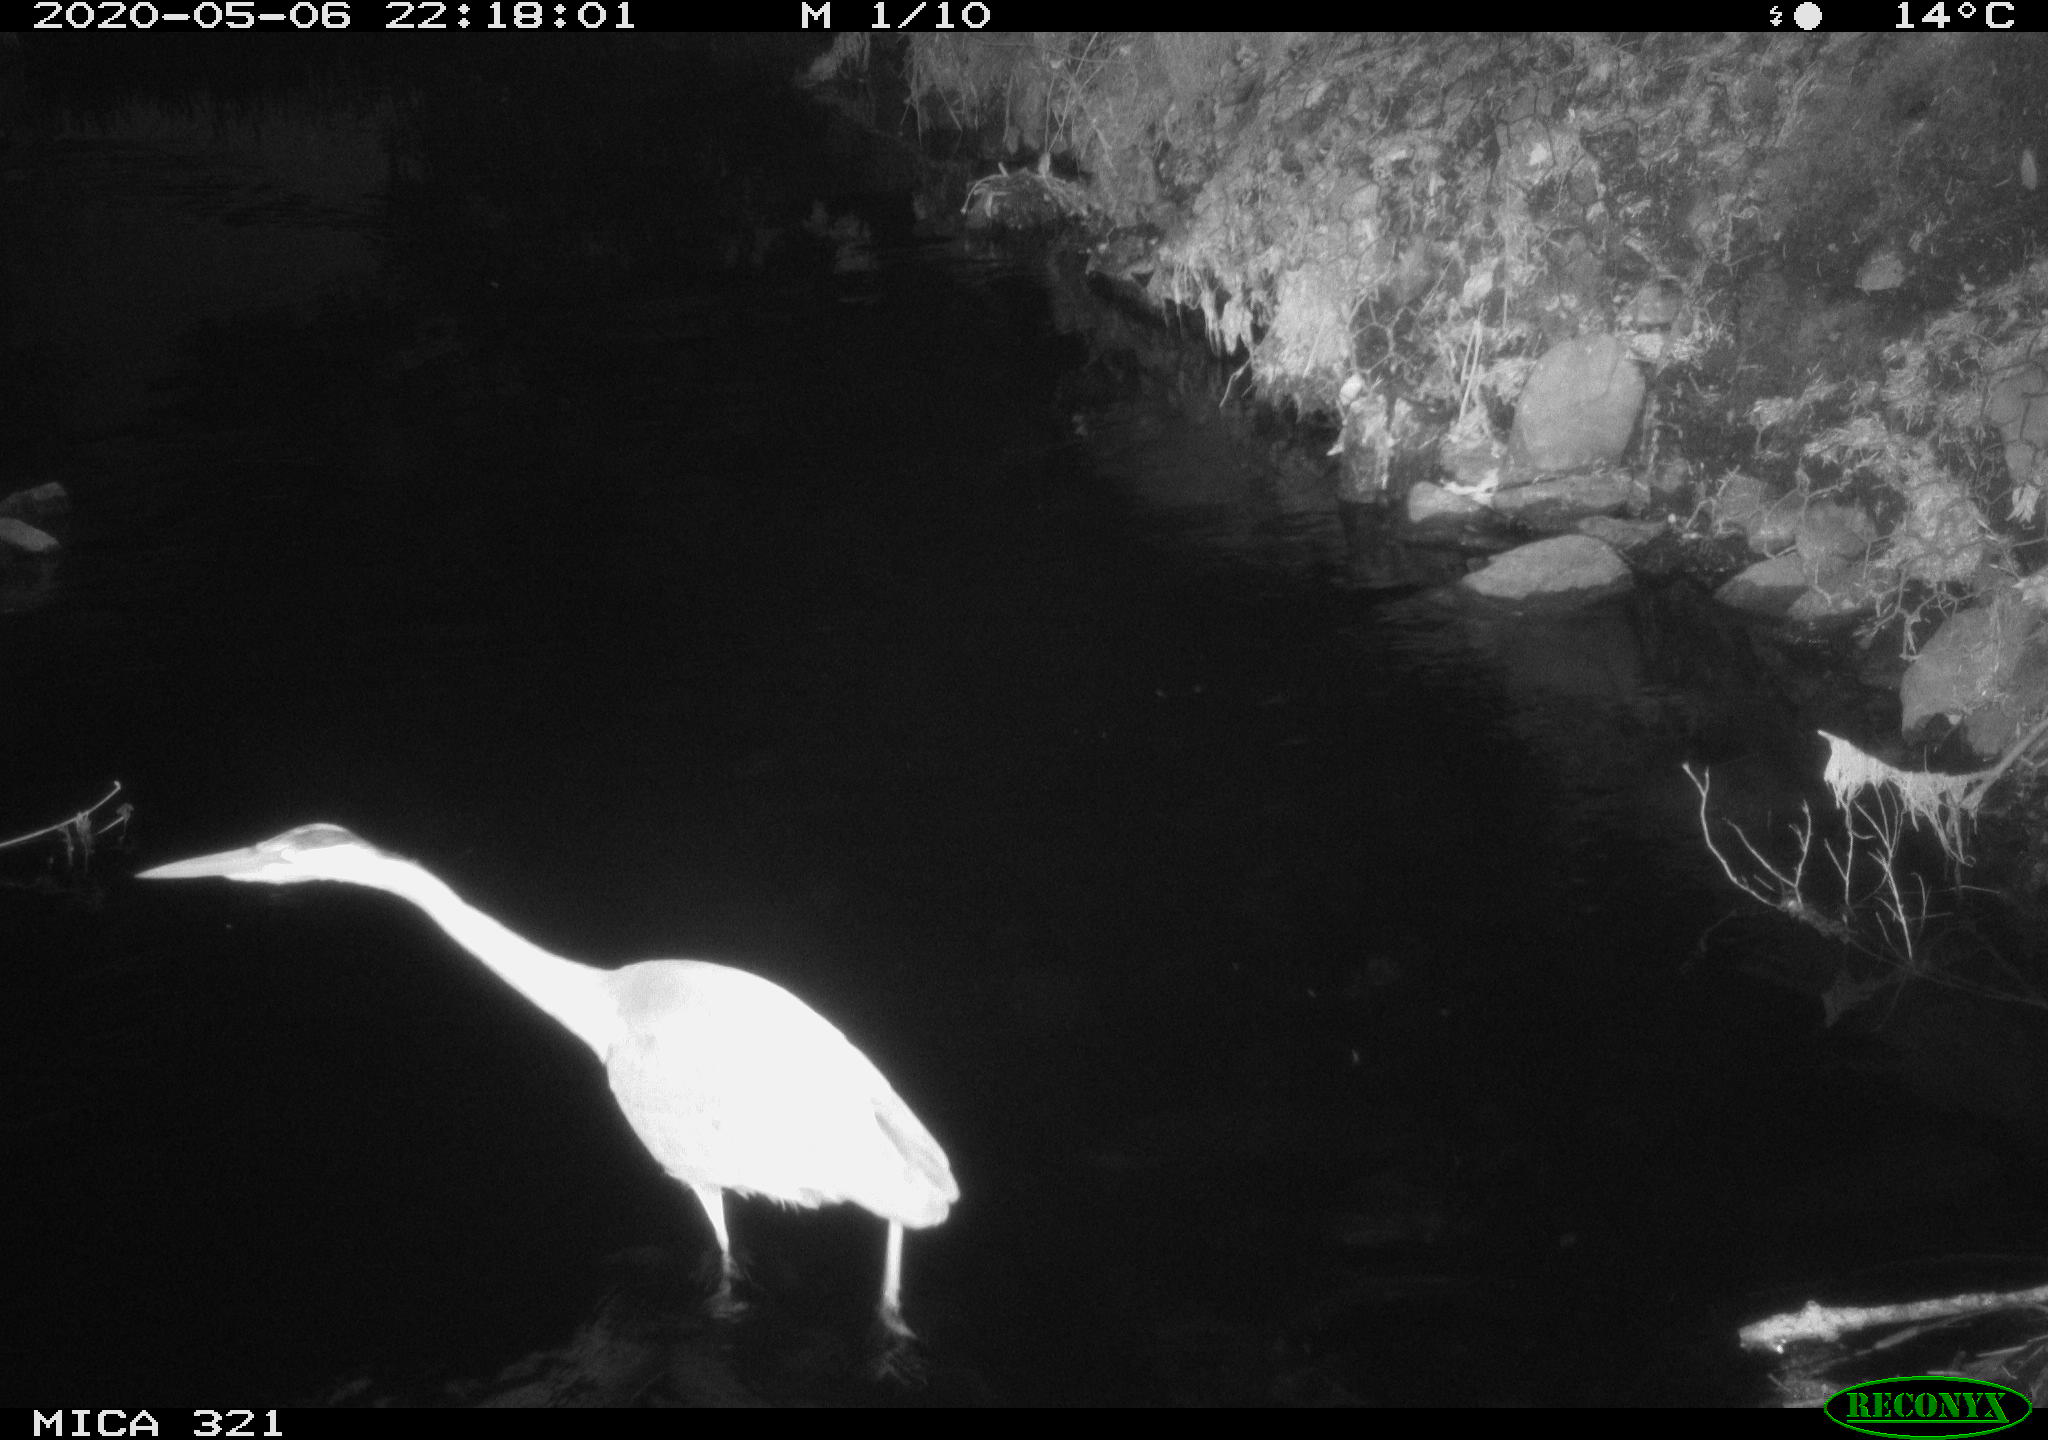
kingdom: Animalia
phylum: Chordata
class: Aves
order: Pelecaniformes
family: Ardeidae
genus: Ardea
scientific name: Ardea cinerea
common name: Grey heron
